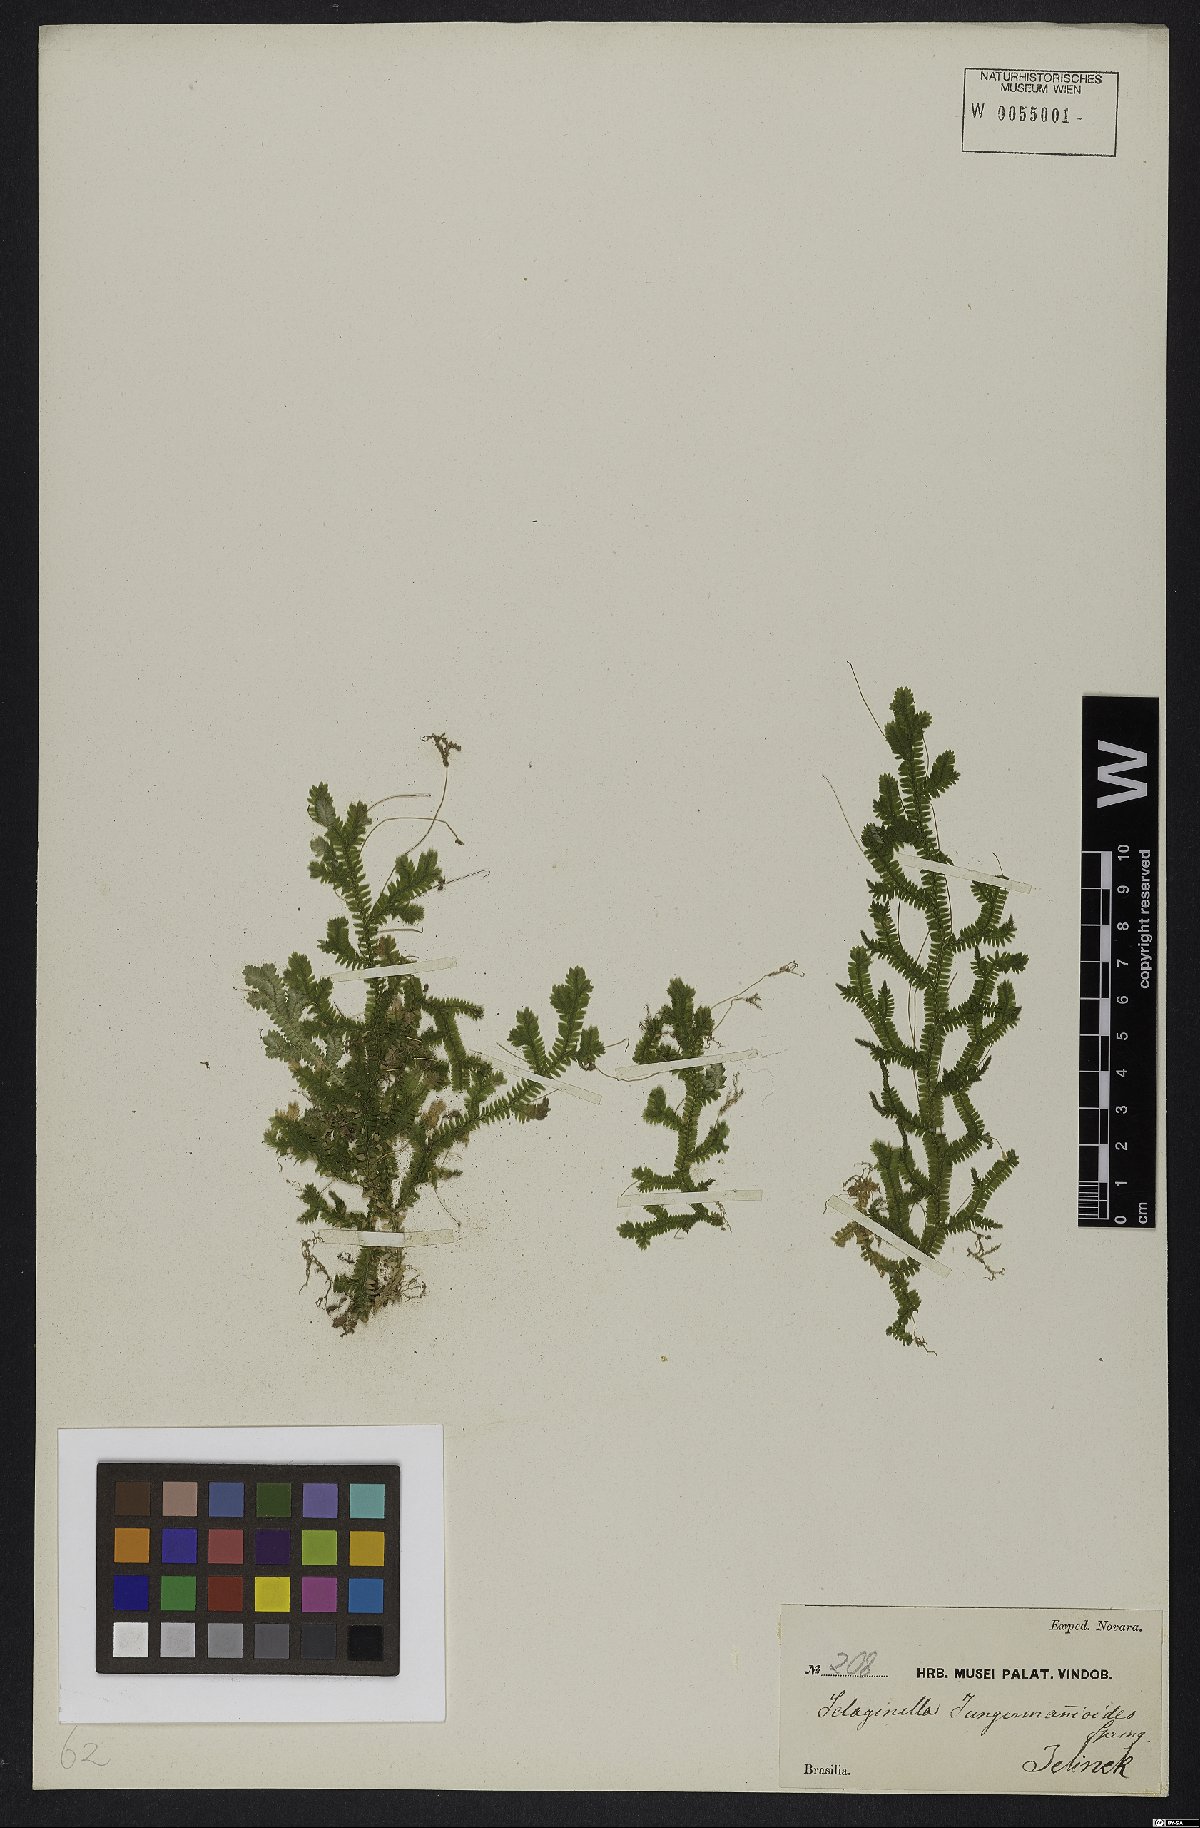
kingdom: Plantae
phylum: Tracheophyta
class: Lycopodiopsida
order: Selaginellales
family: Selaginellaceae
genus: Selaginella
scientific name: Selaginella jungermannioides
